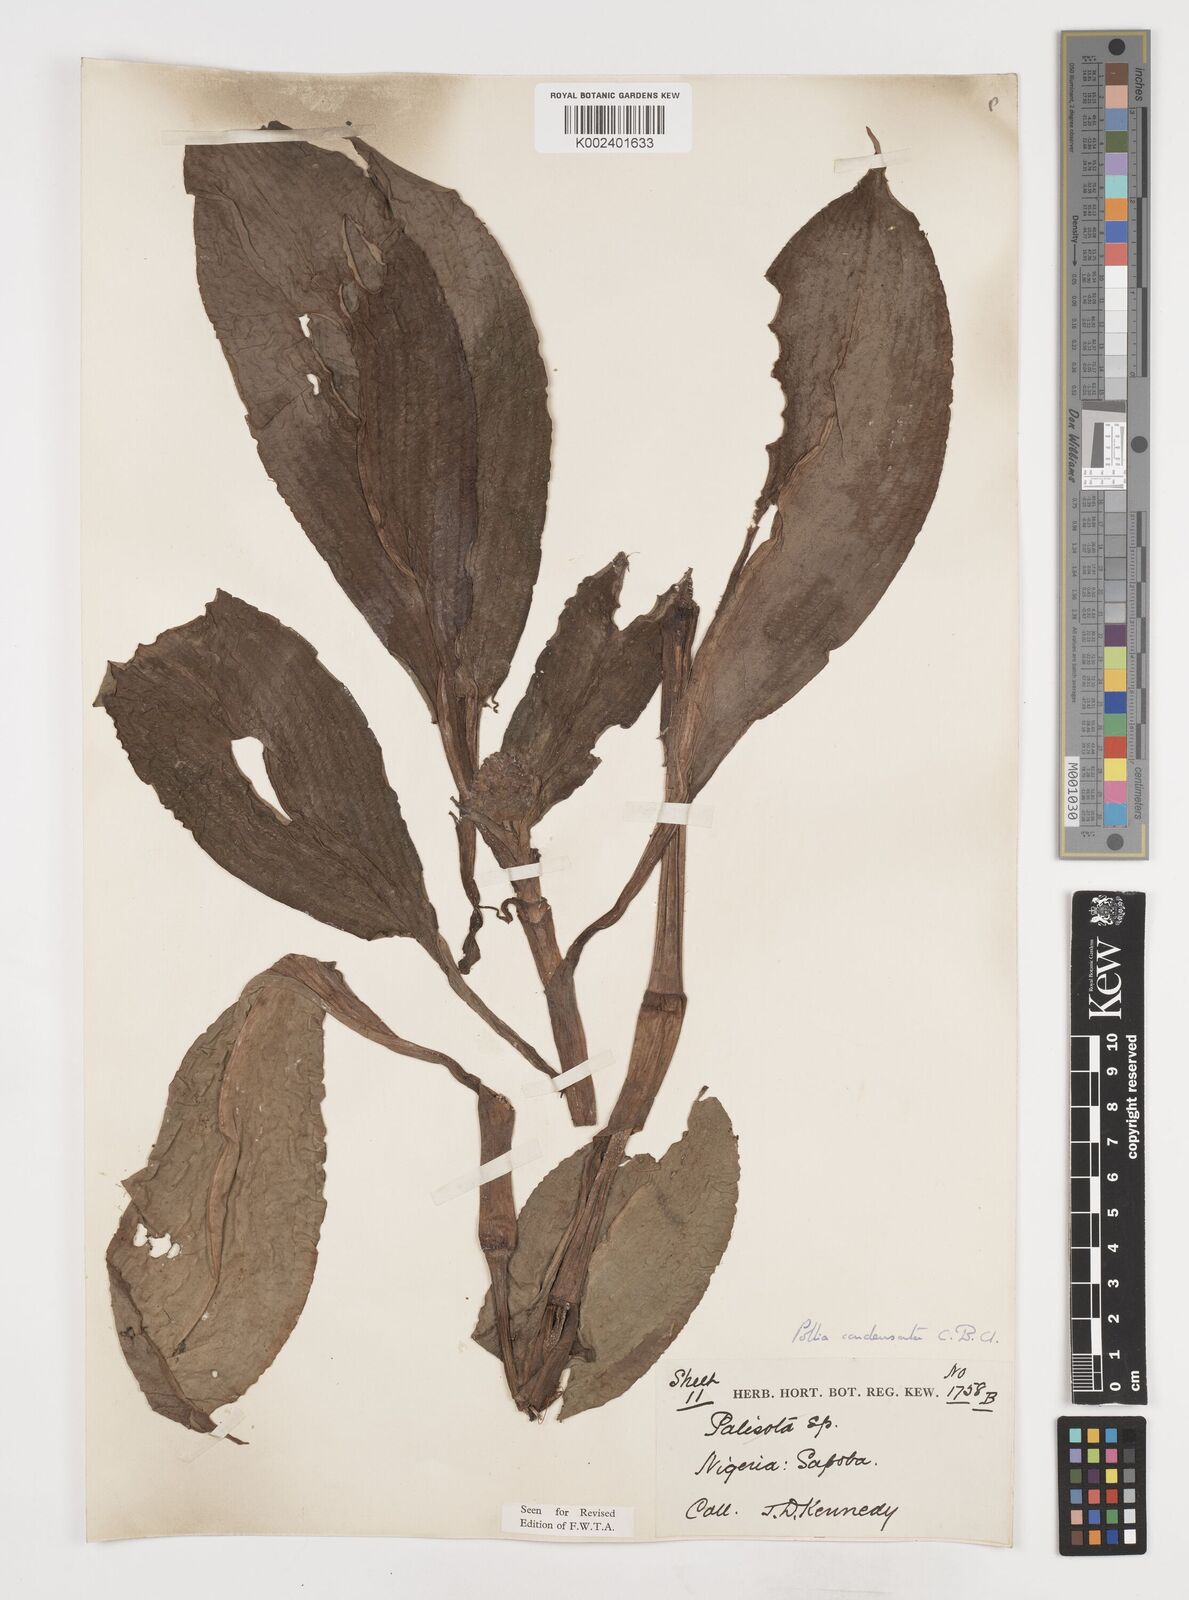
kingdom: Plantae
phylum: Tracheophyta
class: Liliopsida
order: Commelinales
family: Commelinaceae
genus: Pollia
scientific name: Pollia condensata
